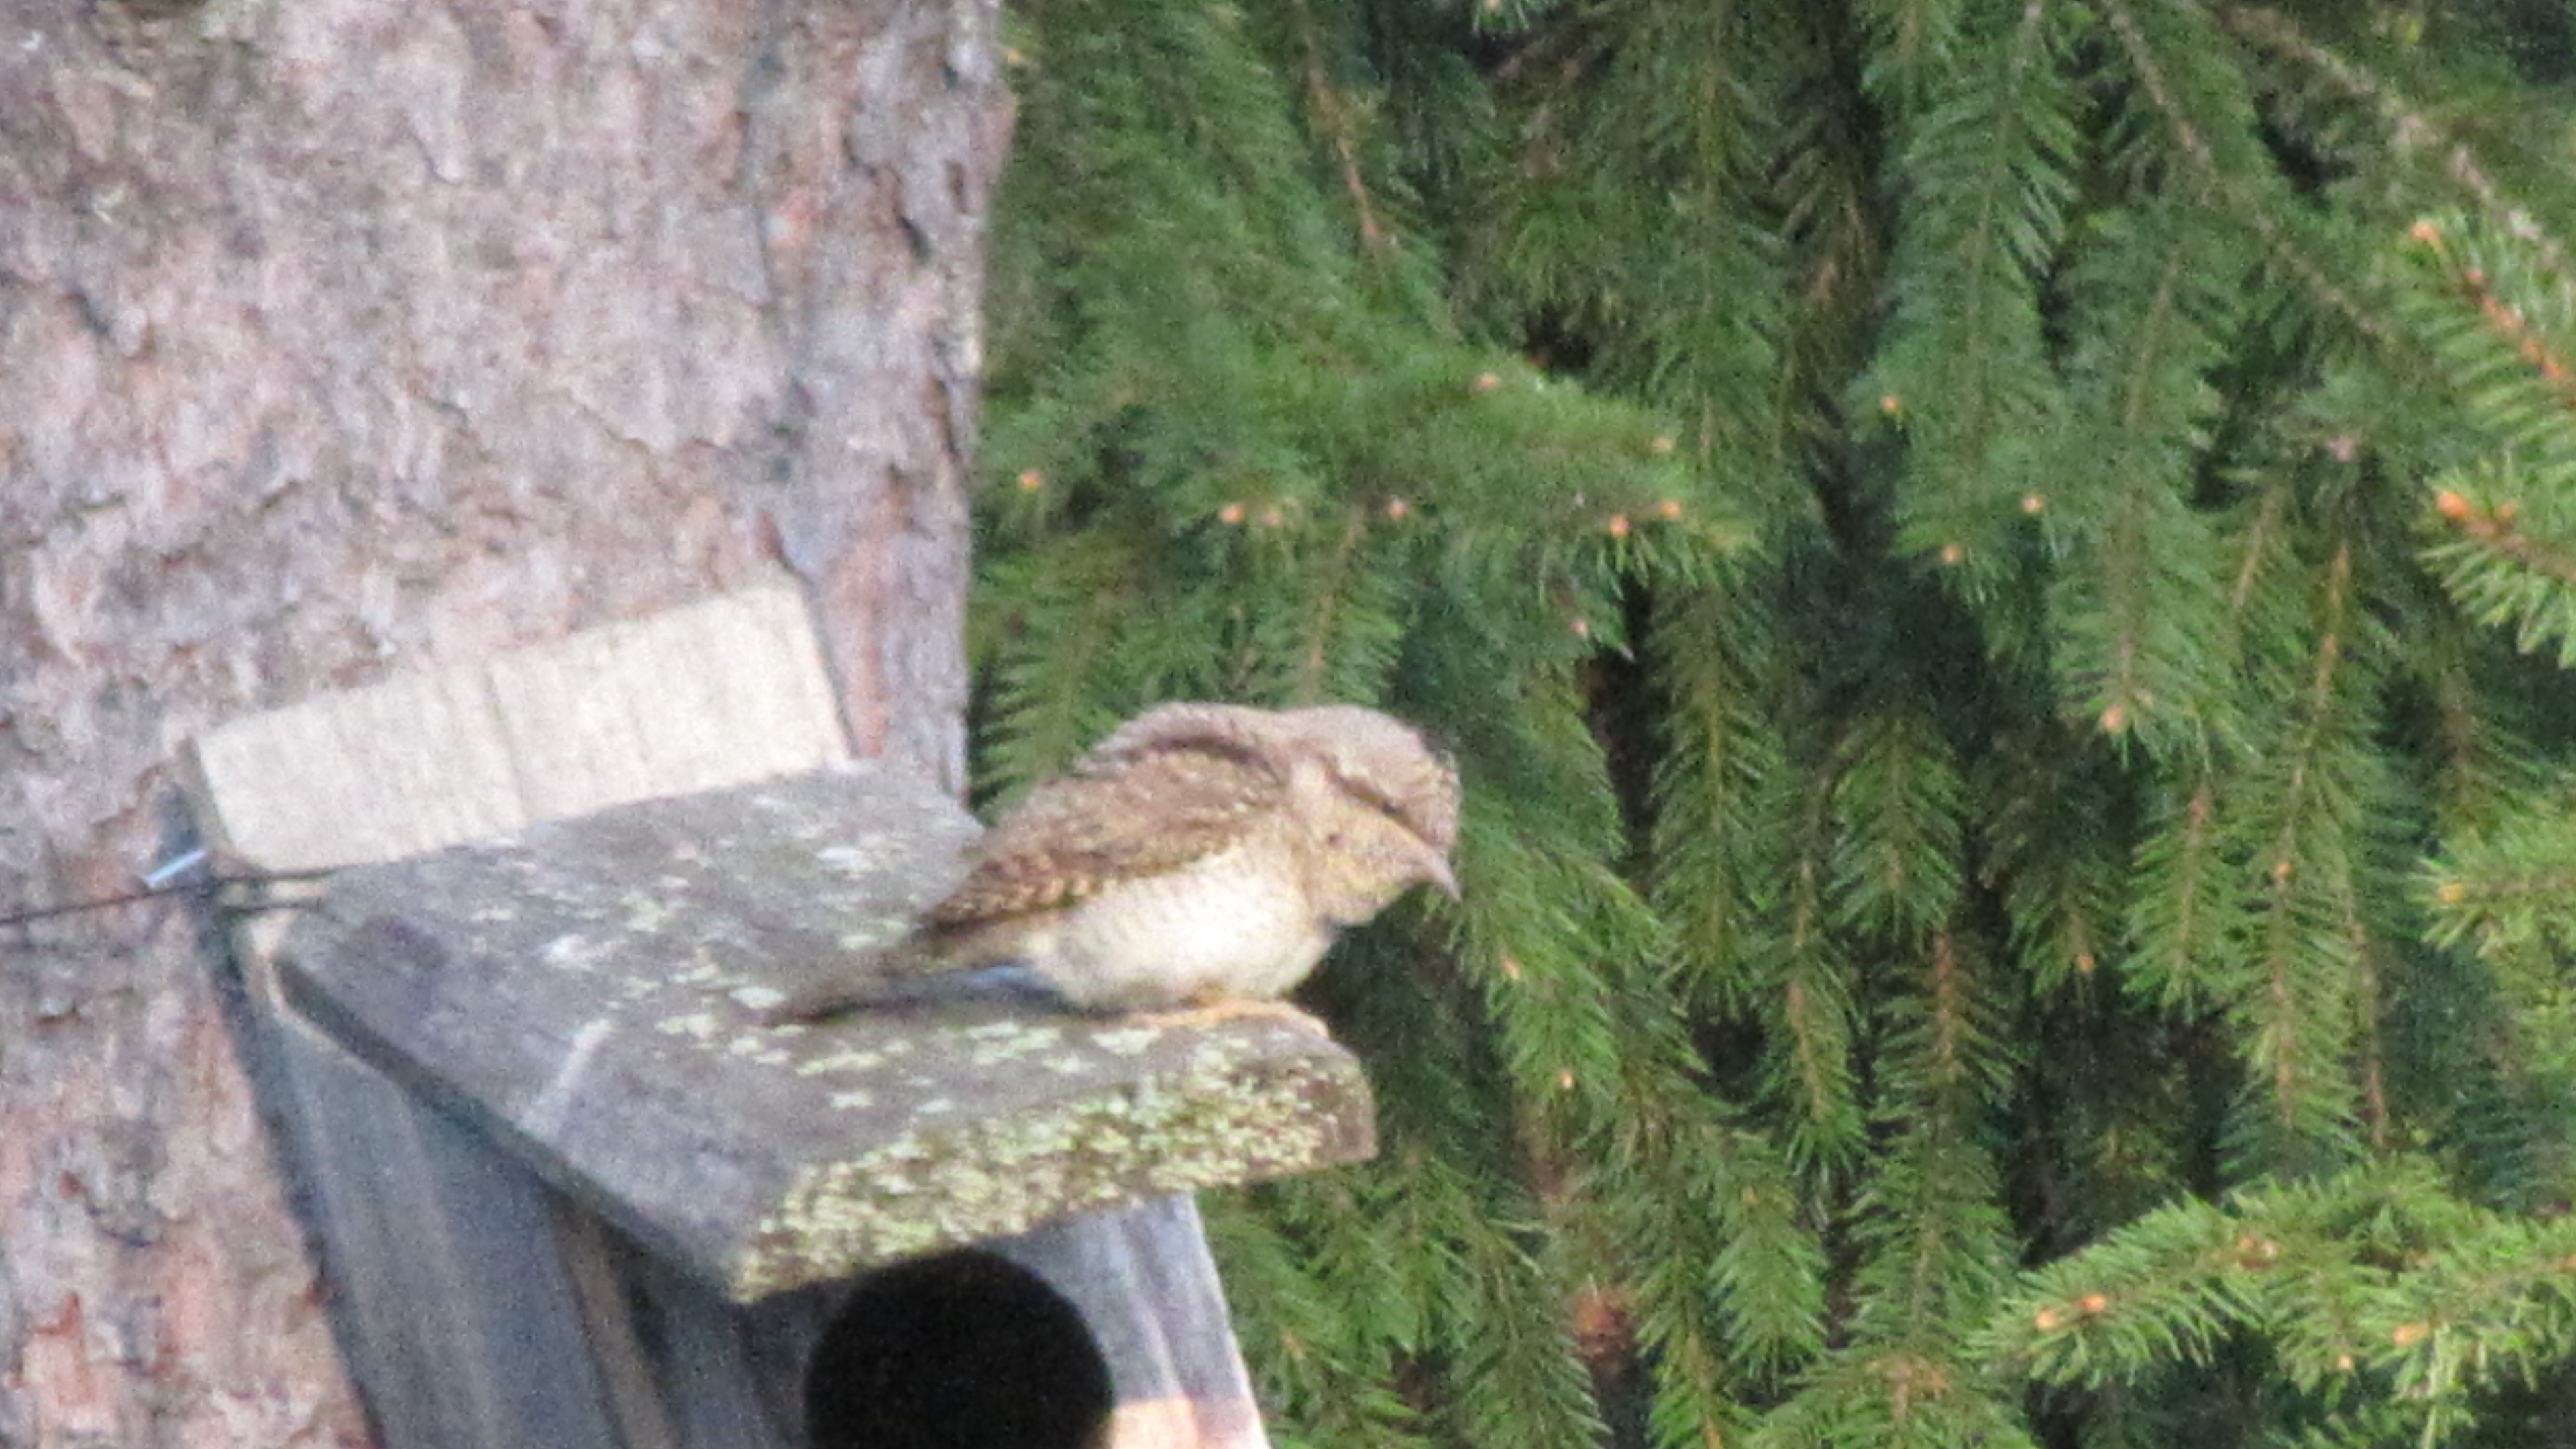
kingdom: Animalia
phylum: Chordata
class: Aves
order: Piciformes
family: Picidae
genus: Jynx
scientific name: Jynx torquilla
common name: Eurasian wryneck
